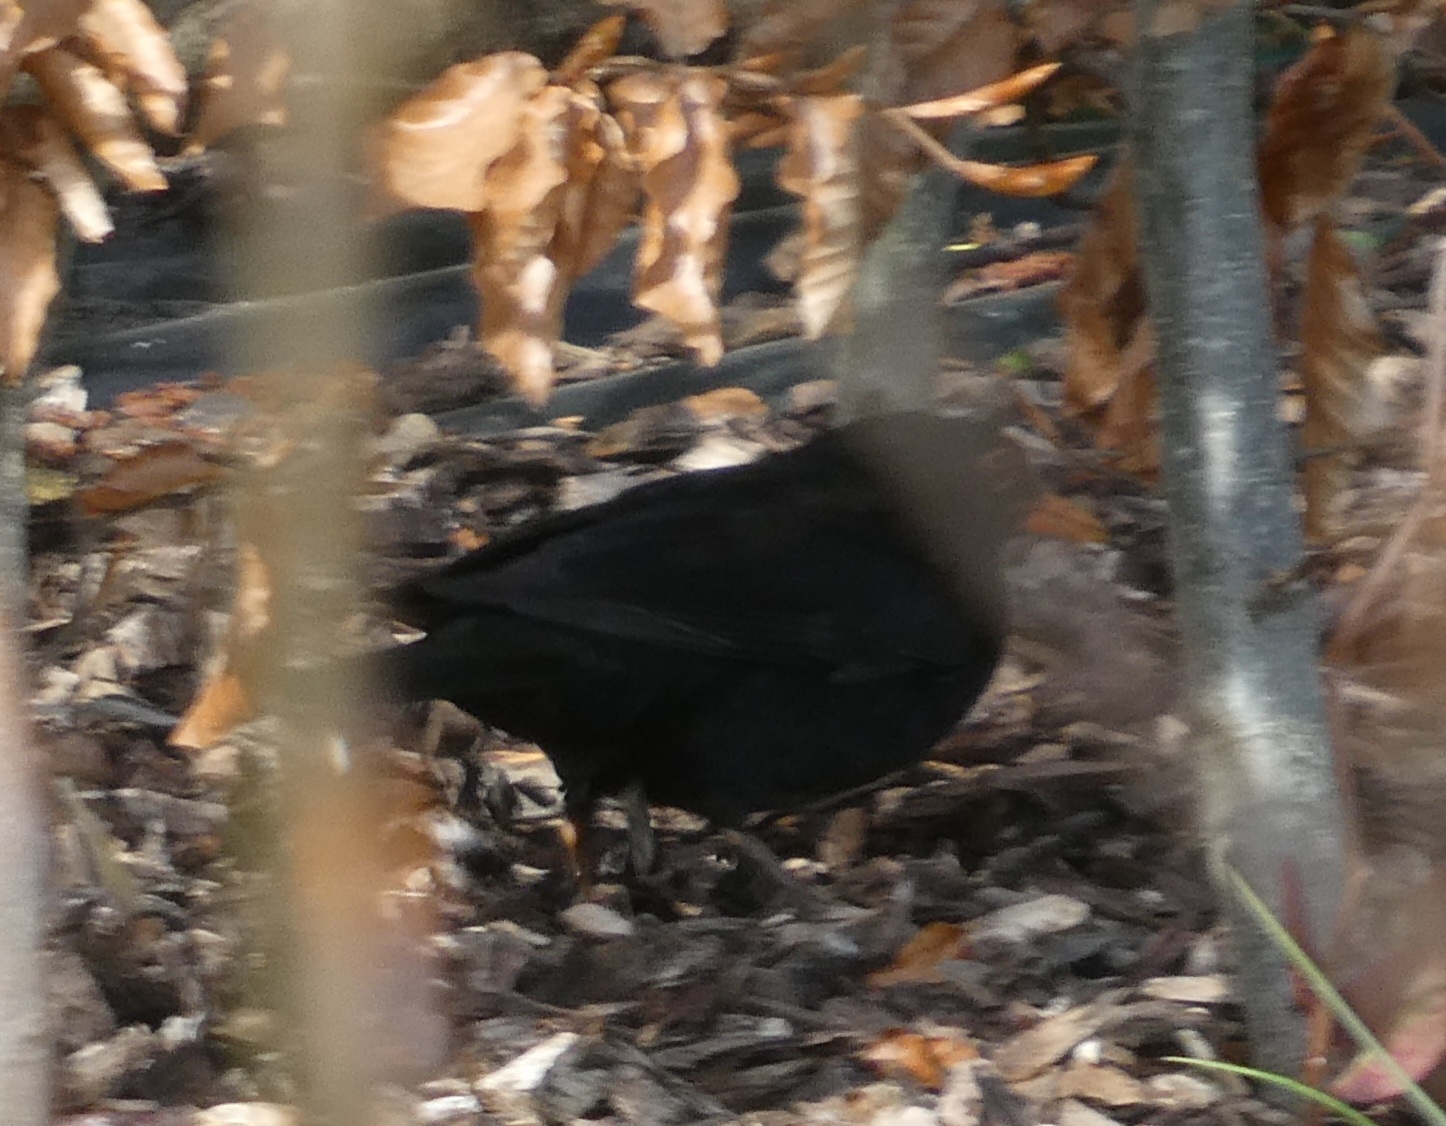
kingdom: Animalia
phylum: Chordata
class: Aves
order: Passeriformes
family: Turdidae
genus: Turdus
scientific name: Turdus merula
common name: Solsort
